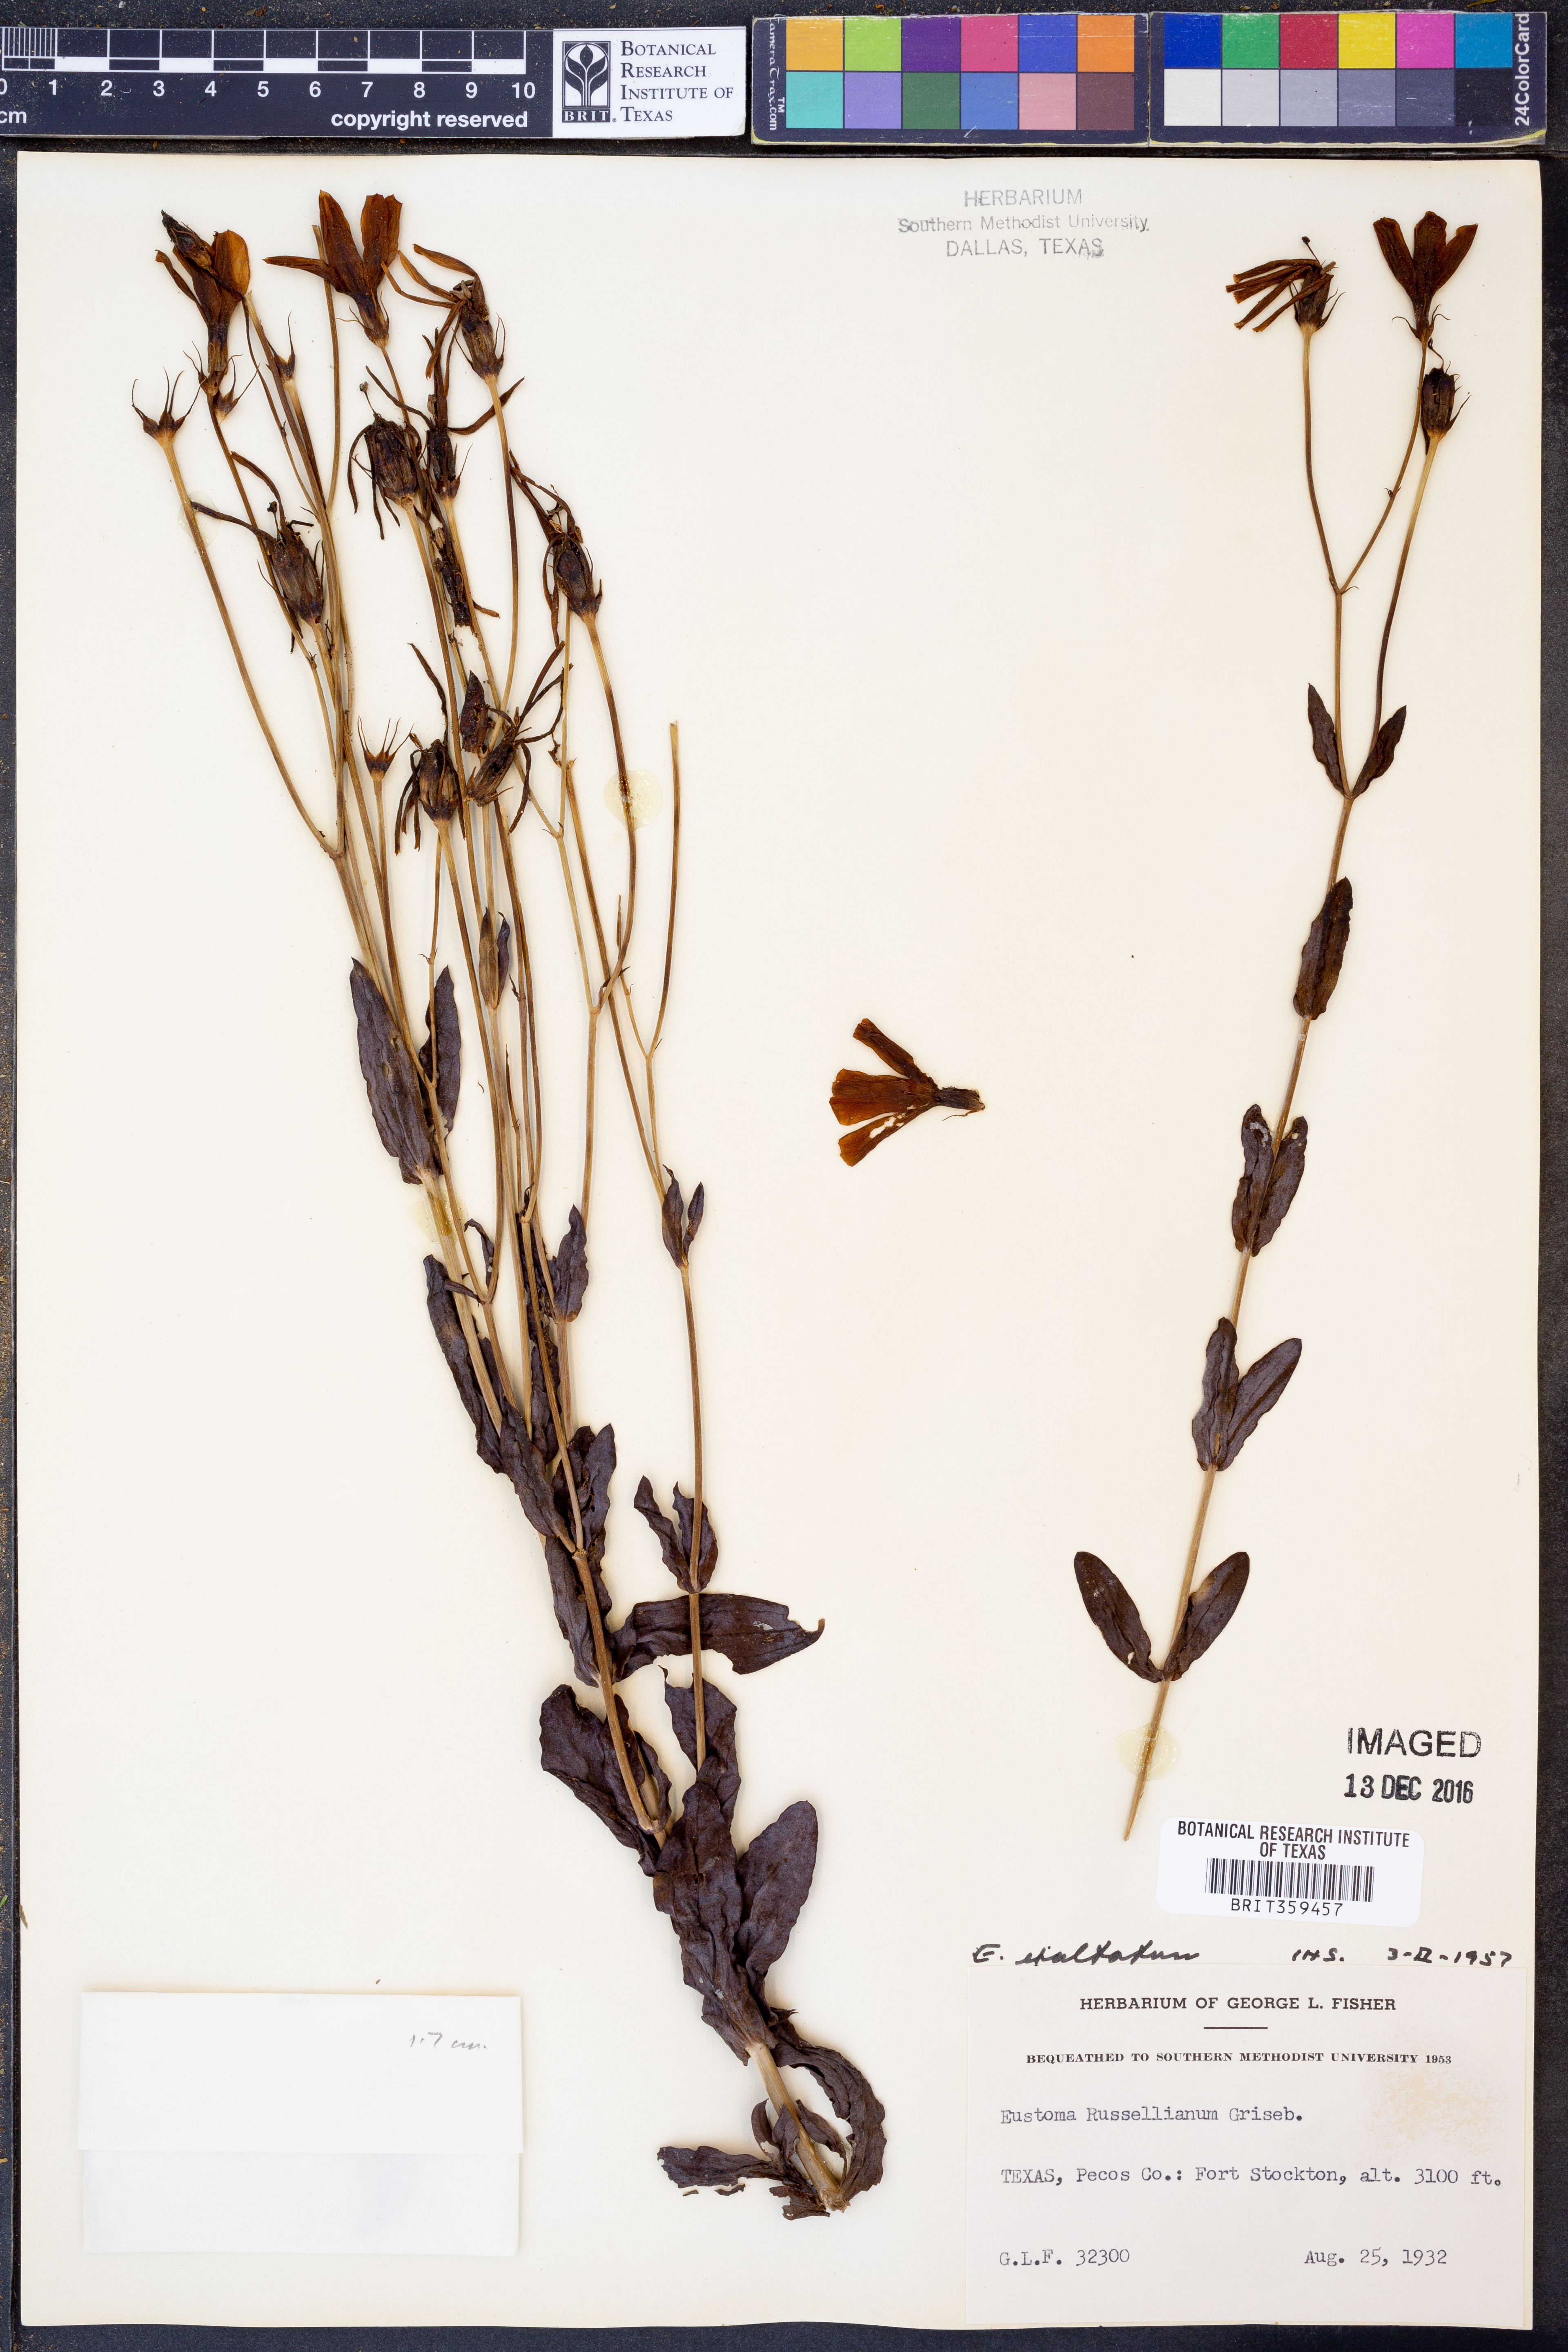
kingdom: Plantae
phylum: Tracheophyta
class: Magnoliopsida
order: Gentianales
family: Gentianaceae
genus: Eustoma
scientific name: Eustoma exaltatum
